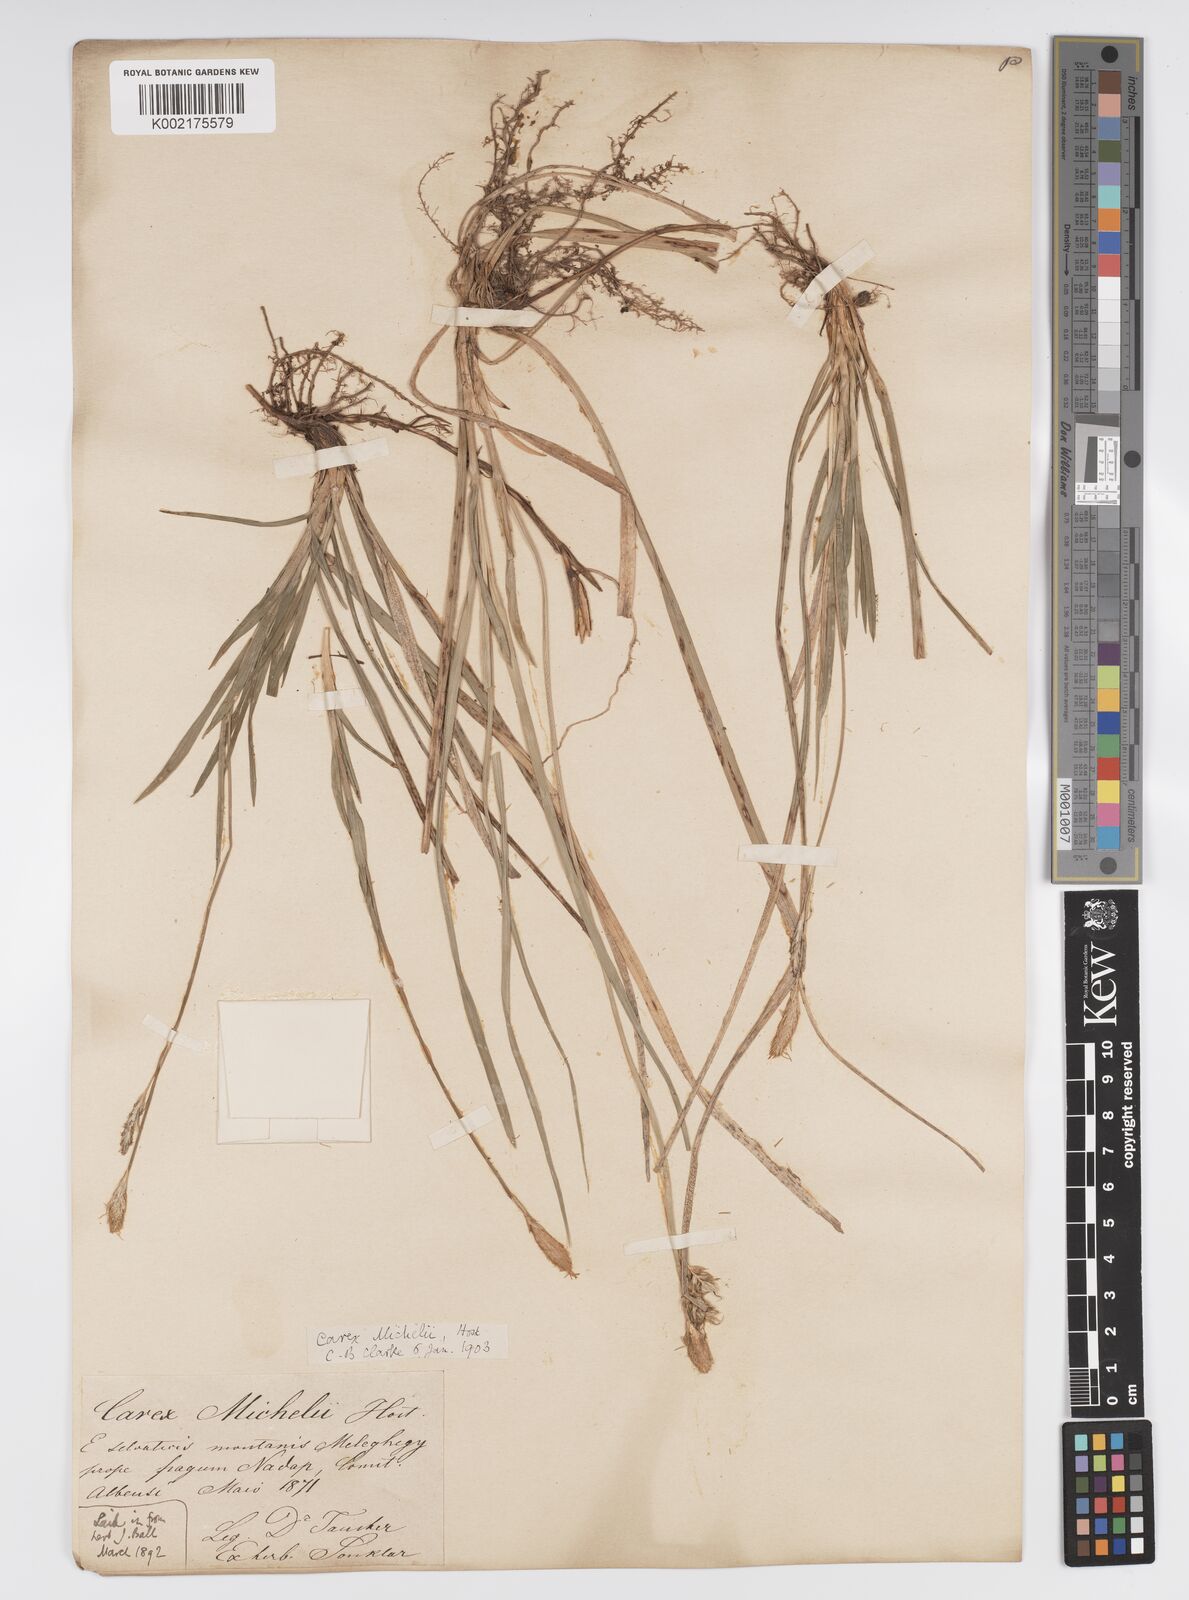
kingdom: Plantae
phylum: Tracheophyta
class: Liliopsida
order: Poales
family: Cyperaceae
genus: Carex
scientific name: Carex michelii
